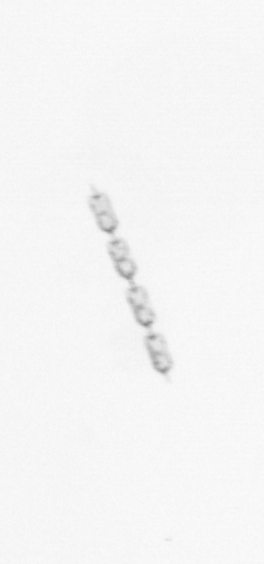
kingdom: Chromista
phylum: Ochrophyta
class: Bacillariophyceae
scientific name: Bacillariophyceae
